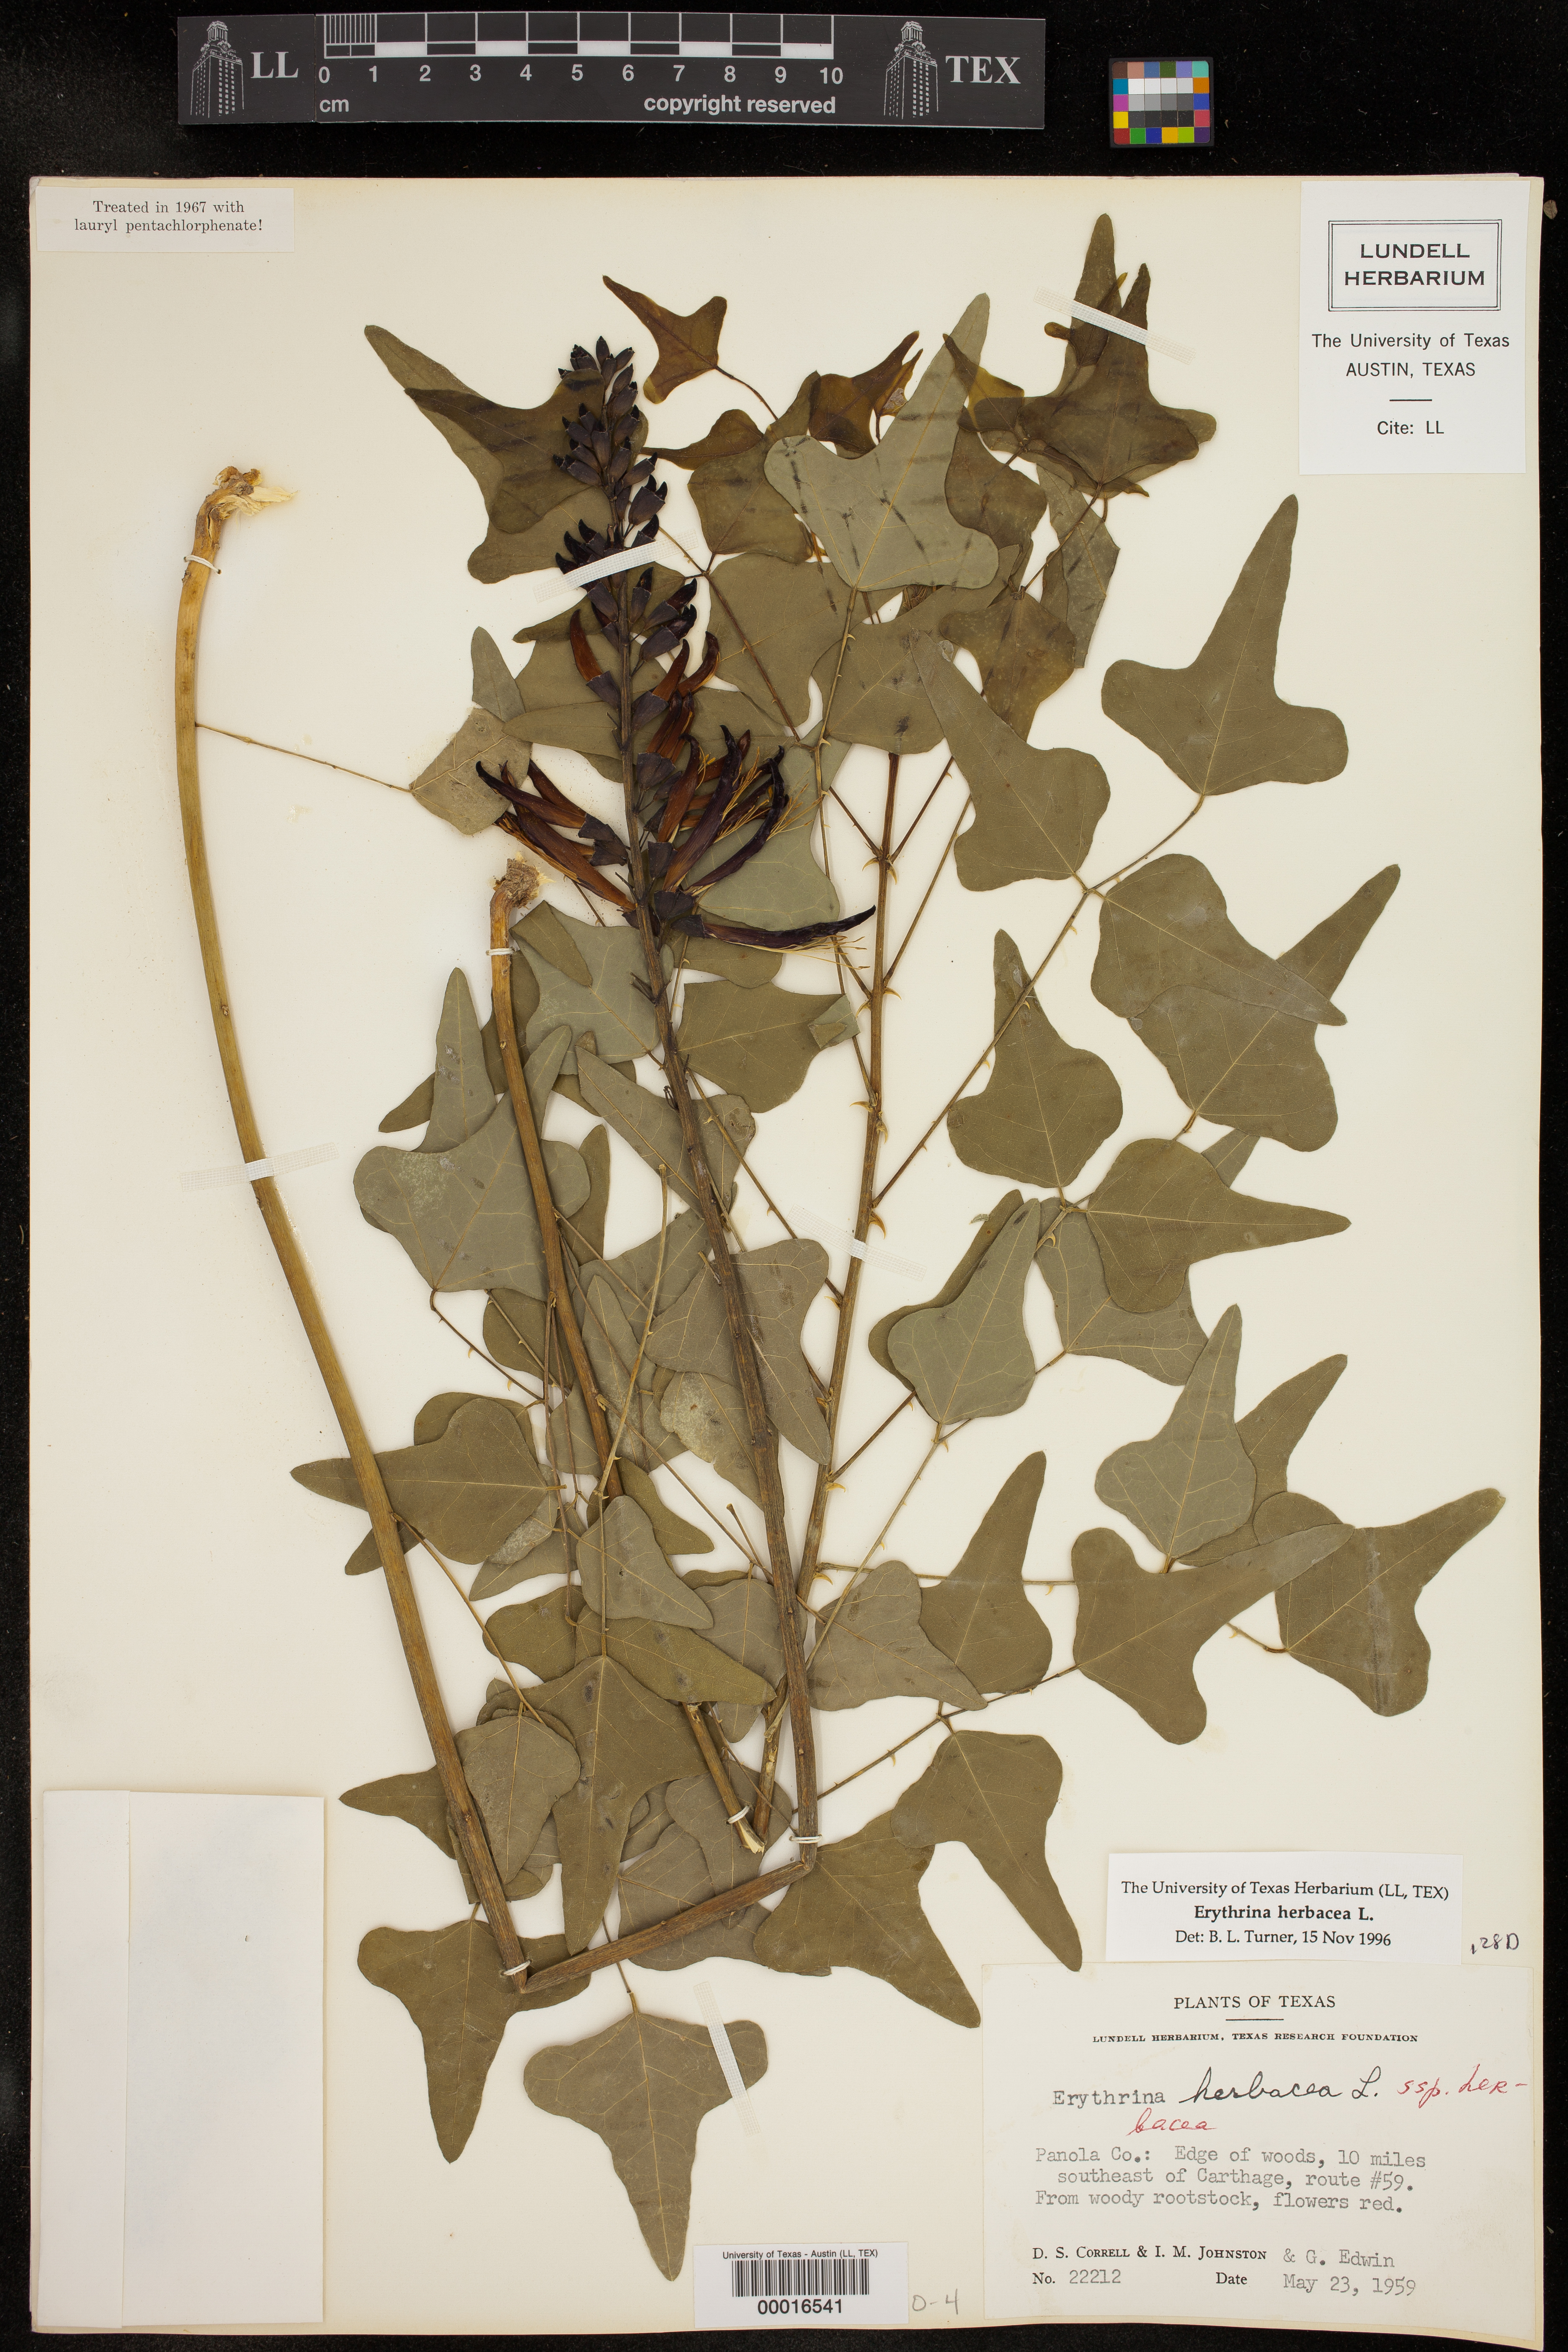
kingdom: Plantae
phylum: Tracheophyta
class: Magnoliopsida
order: Fabales
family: Fabaceae
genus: Erythrina
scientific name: Erythrina herbacea
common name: Coral-bean
